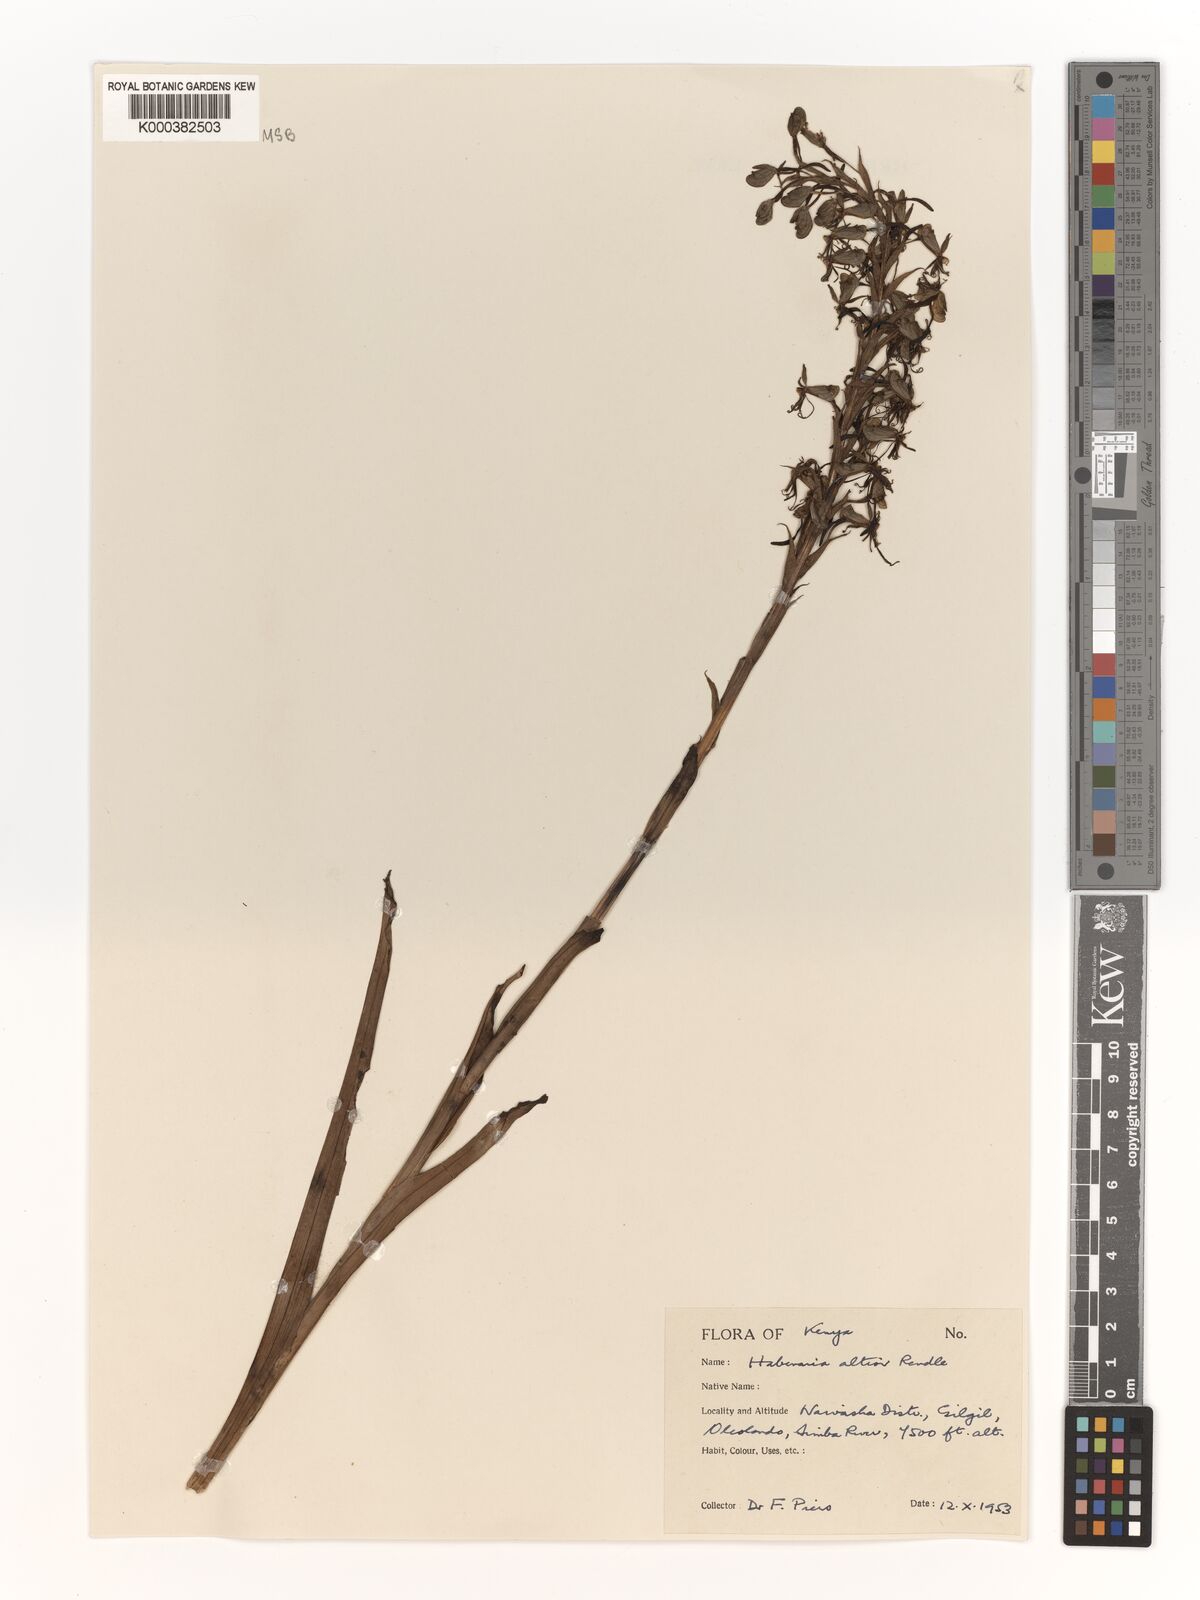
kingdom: Plantae
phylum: Tracheophyta
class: Liliopsida
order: Asparagales
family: Orchidaceae
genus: Habenaria
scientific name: Habenaria altior
